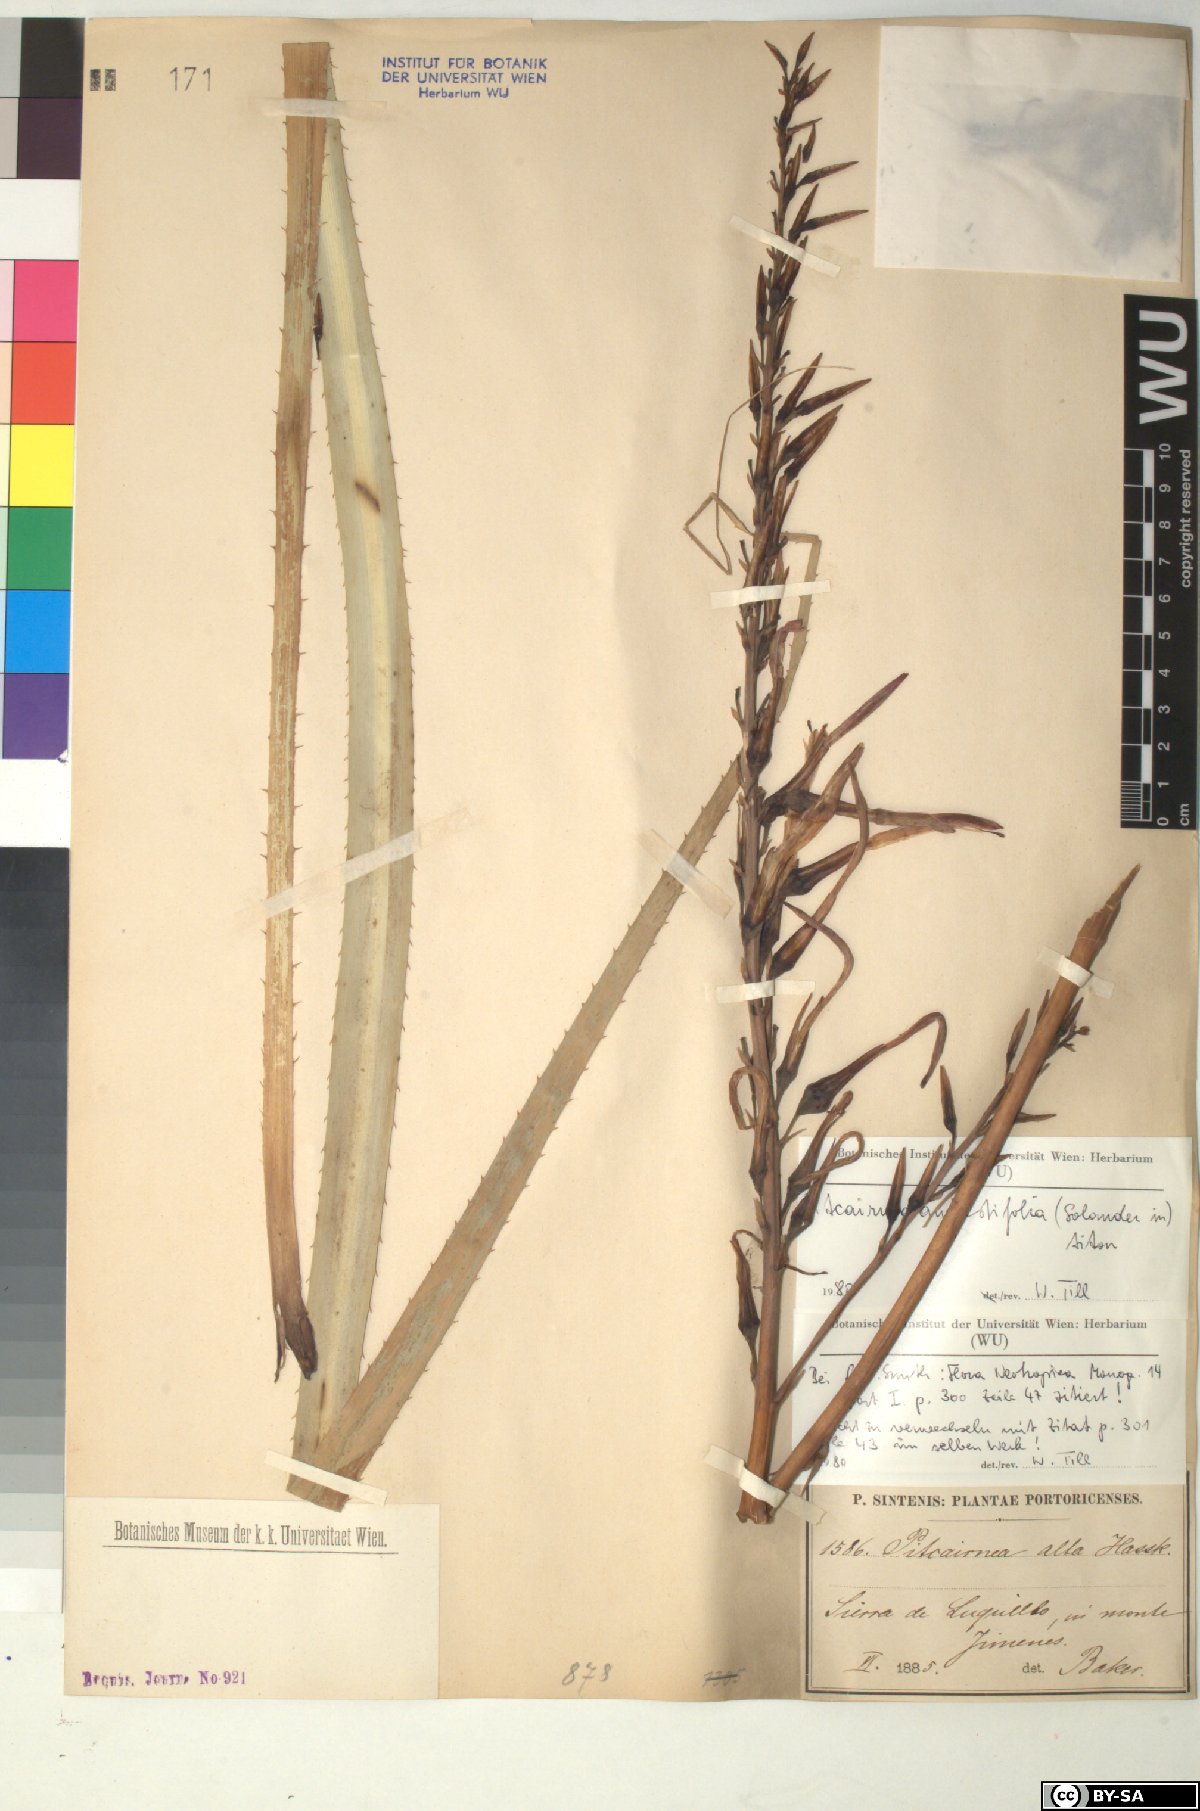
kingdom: Plantae
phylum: Tracheophyta
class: Liliopsida
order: Poales
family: Bromeliaceae
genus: Pitcairnia
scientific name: Pitcairnia angustifolia
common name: Clapper
